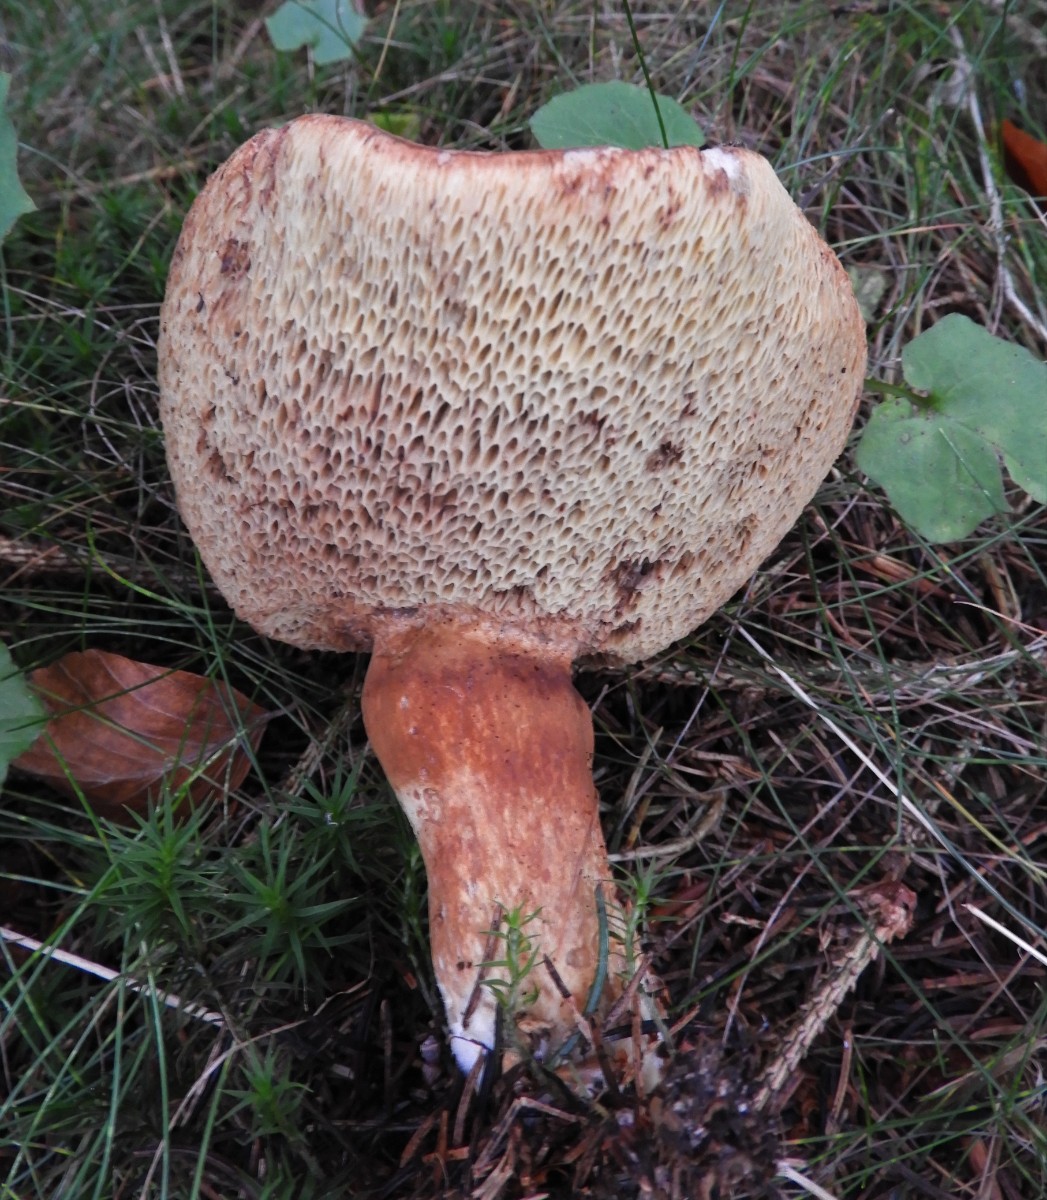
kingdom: Fungi
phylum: Basidiomycota
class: Agaricomycetes
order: Boletales
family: Boletaceae
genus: Imleria
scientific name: Imleria badia
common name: brunstokket rørhat
